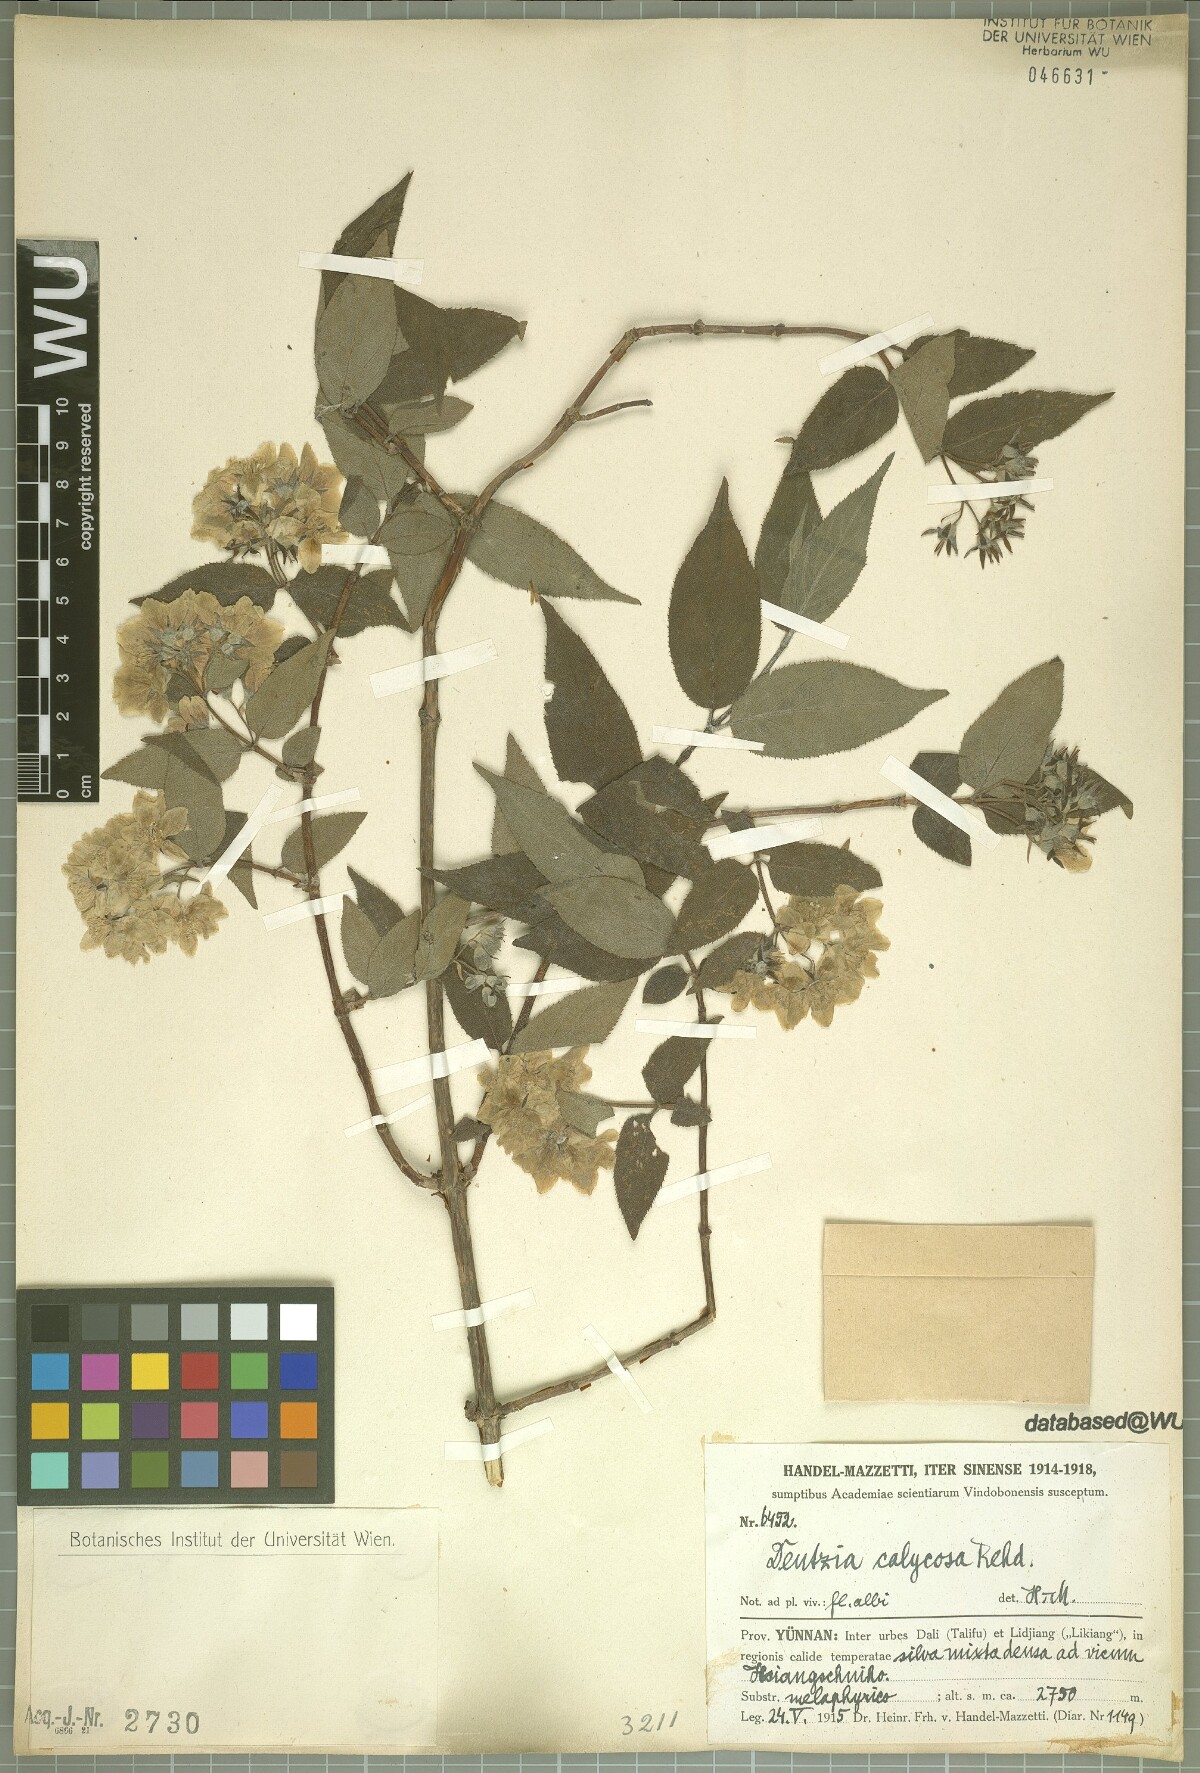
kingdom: Plantae
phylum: Tracheophyta
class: Magnoliopsida
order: Cornales
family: Hydrangeaceae
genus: Deutzia
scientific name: Deutzia calycosa
